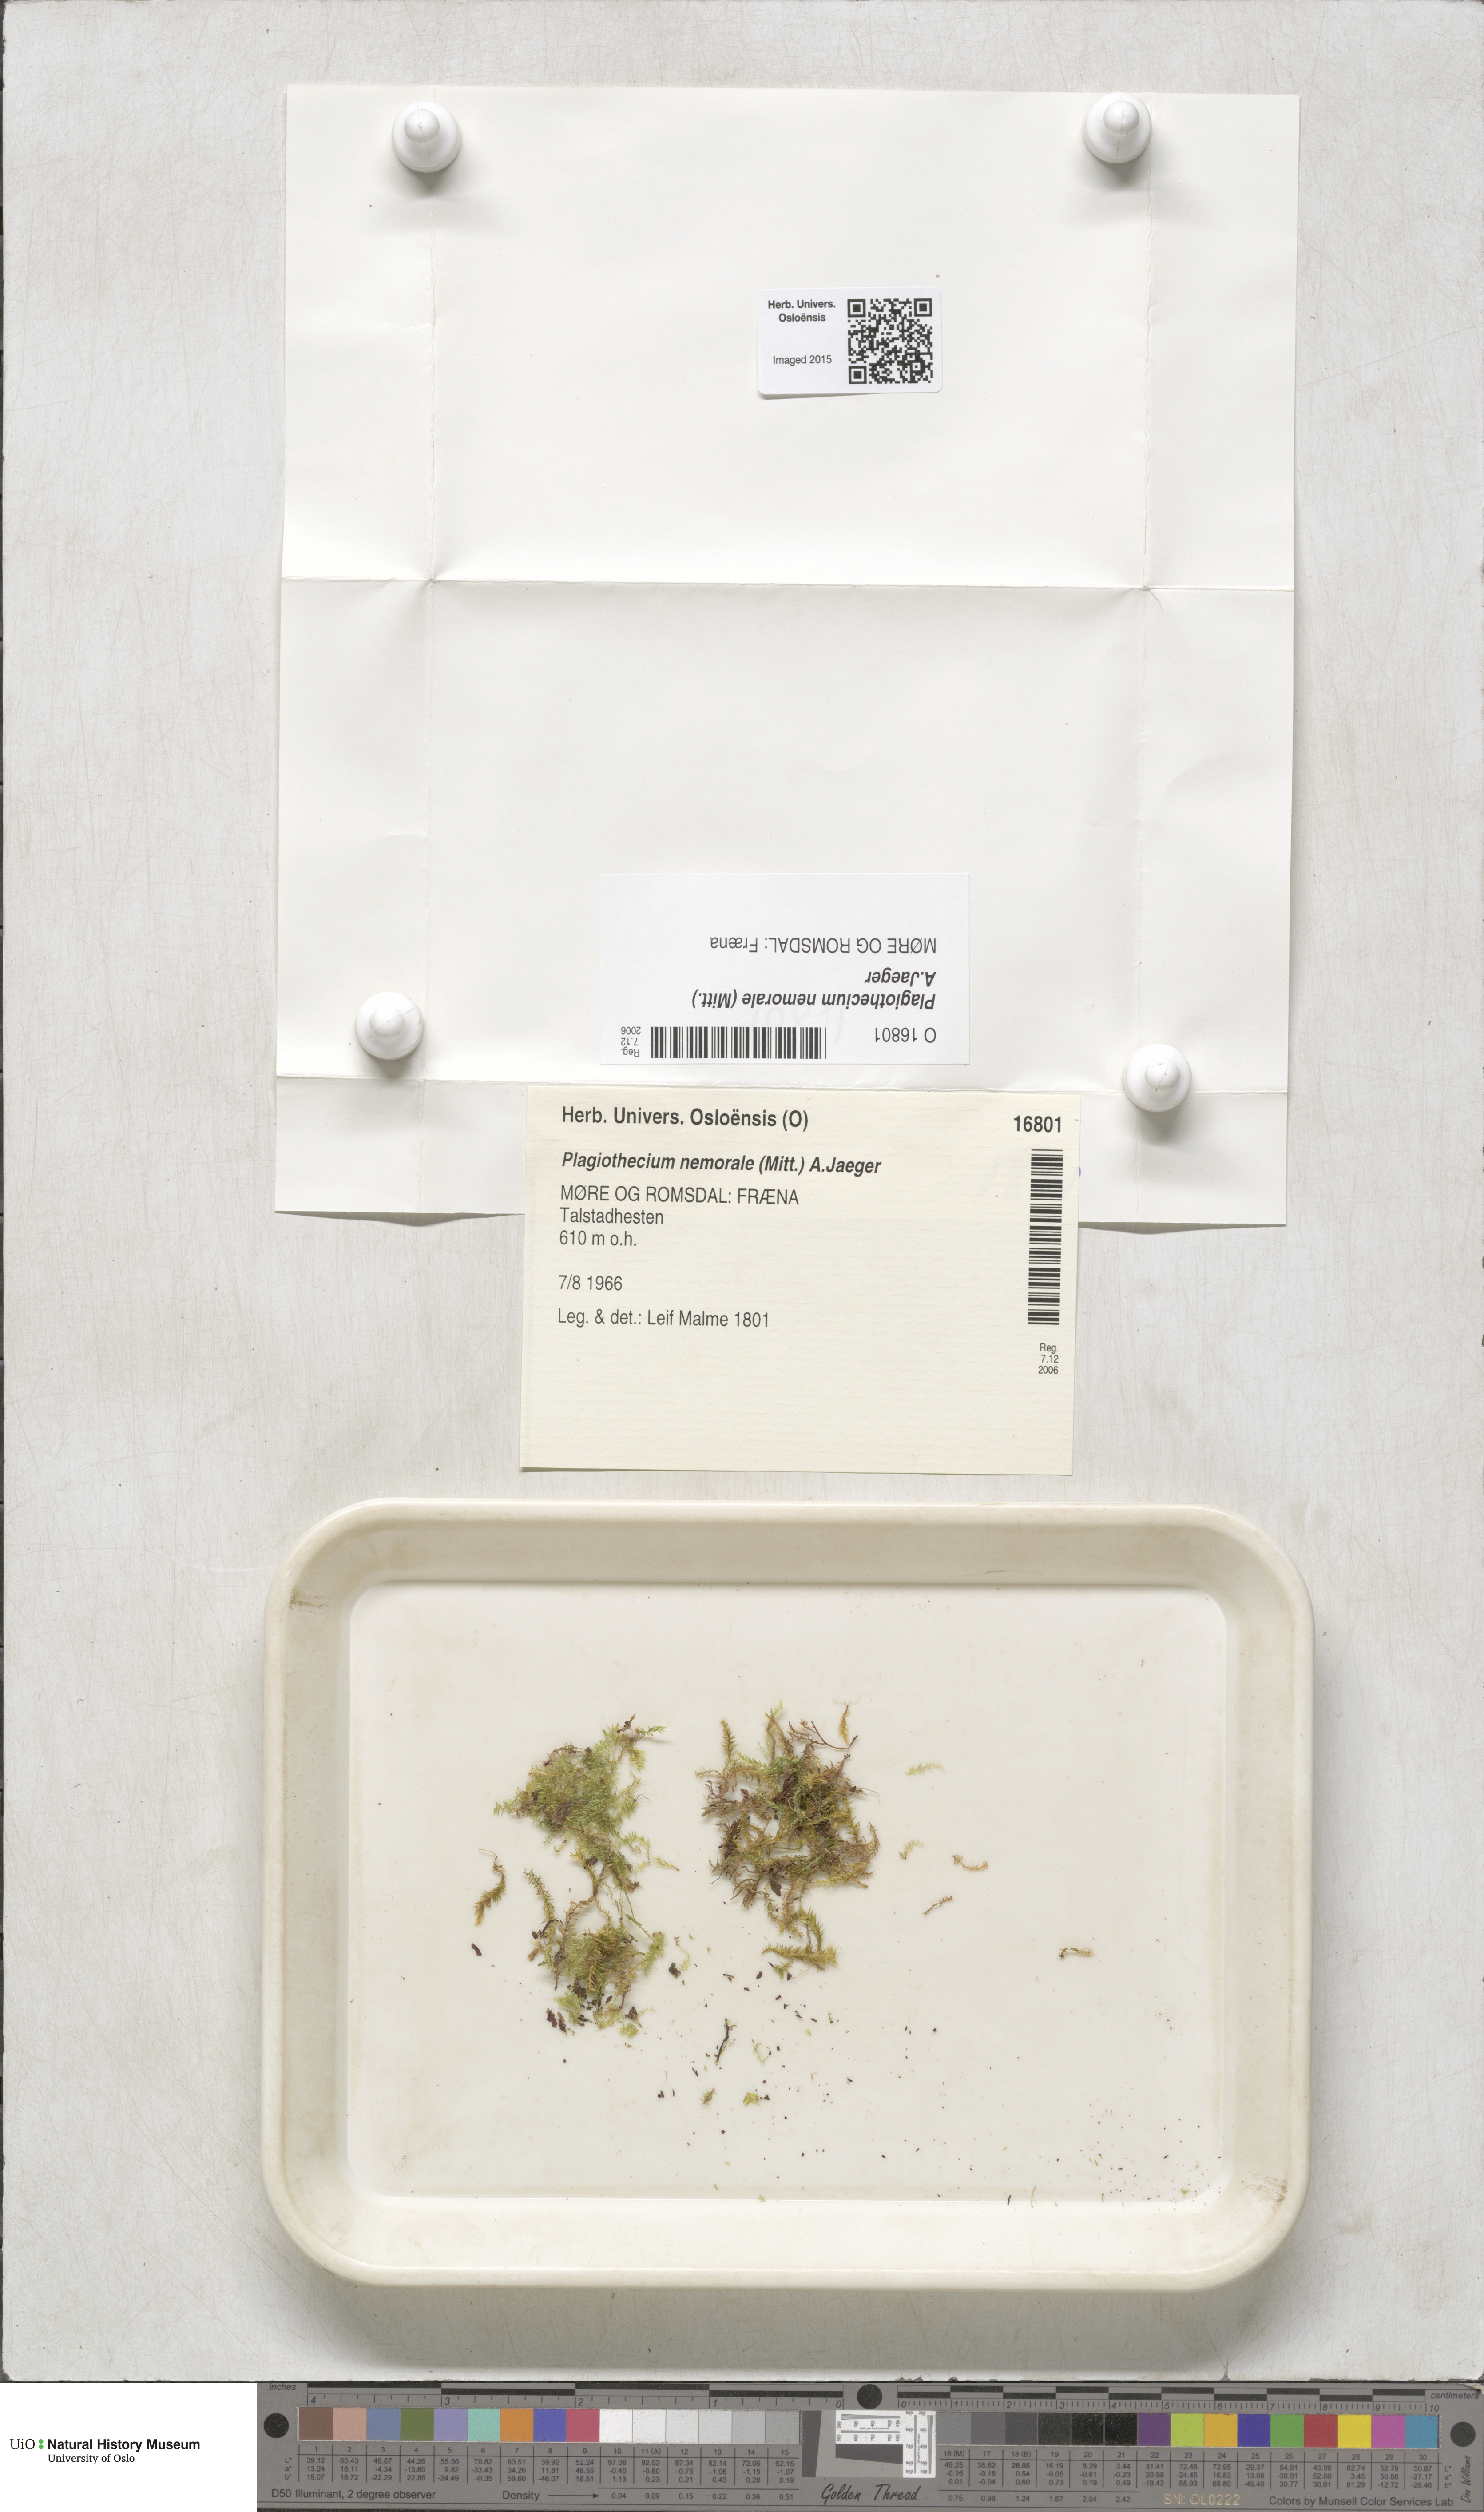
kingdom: Plantae
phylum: Bryophyta
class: Bryopsida
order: Hypnales
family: Plagiotheciaceae
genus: Plagiothecium
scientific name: Plagiothecium nemorale
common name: Woodsy silk-moss
